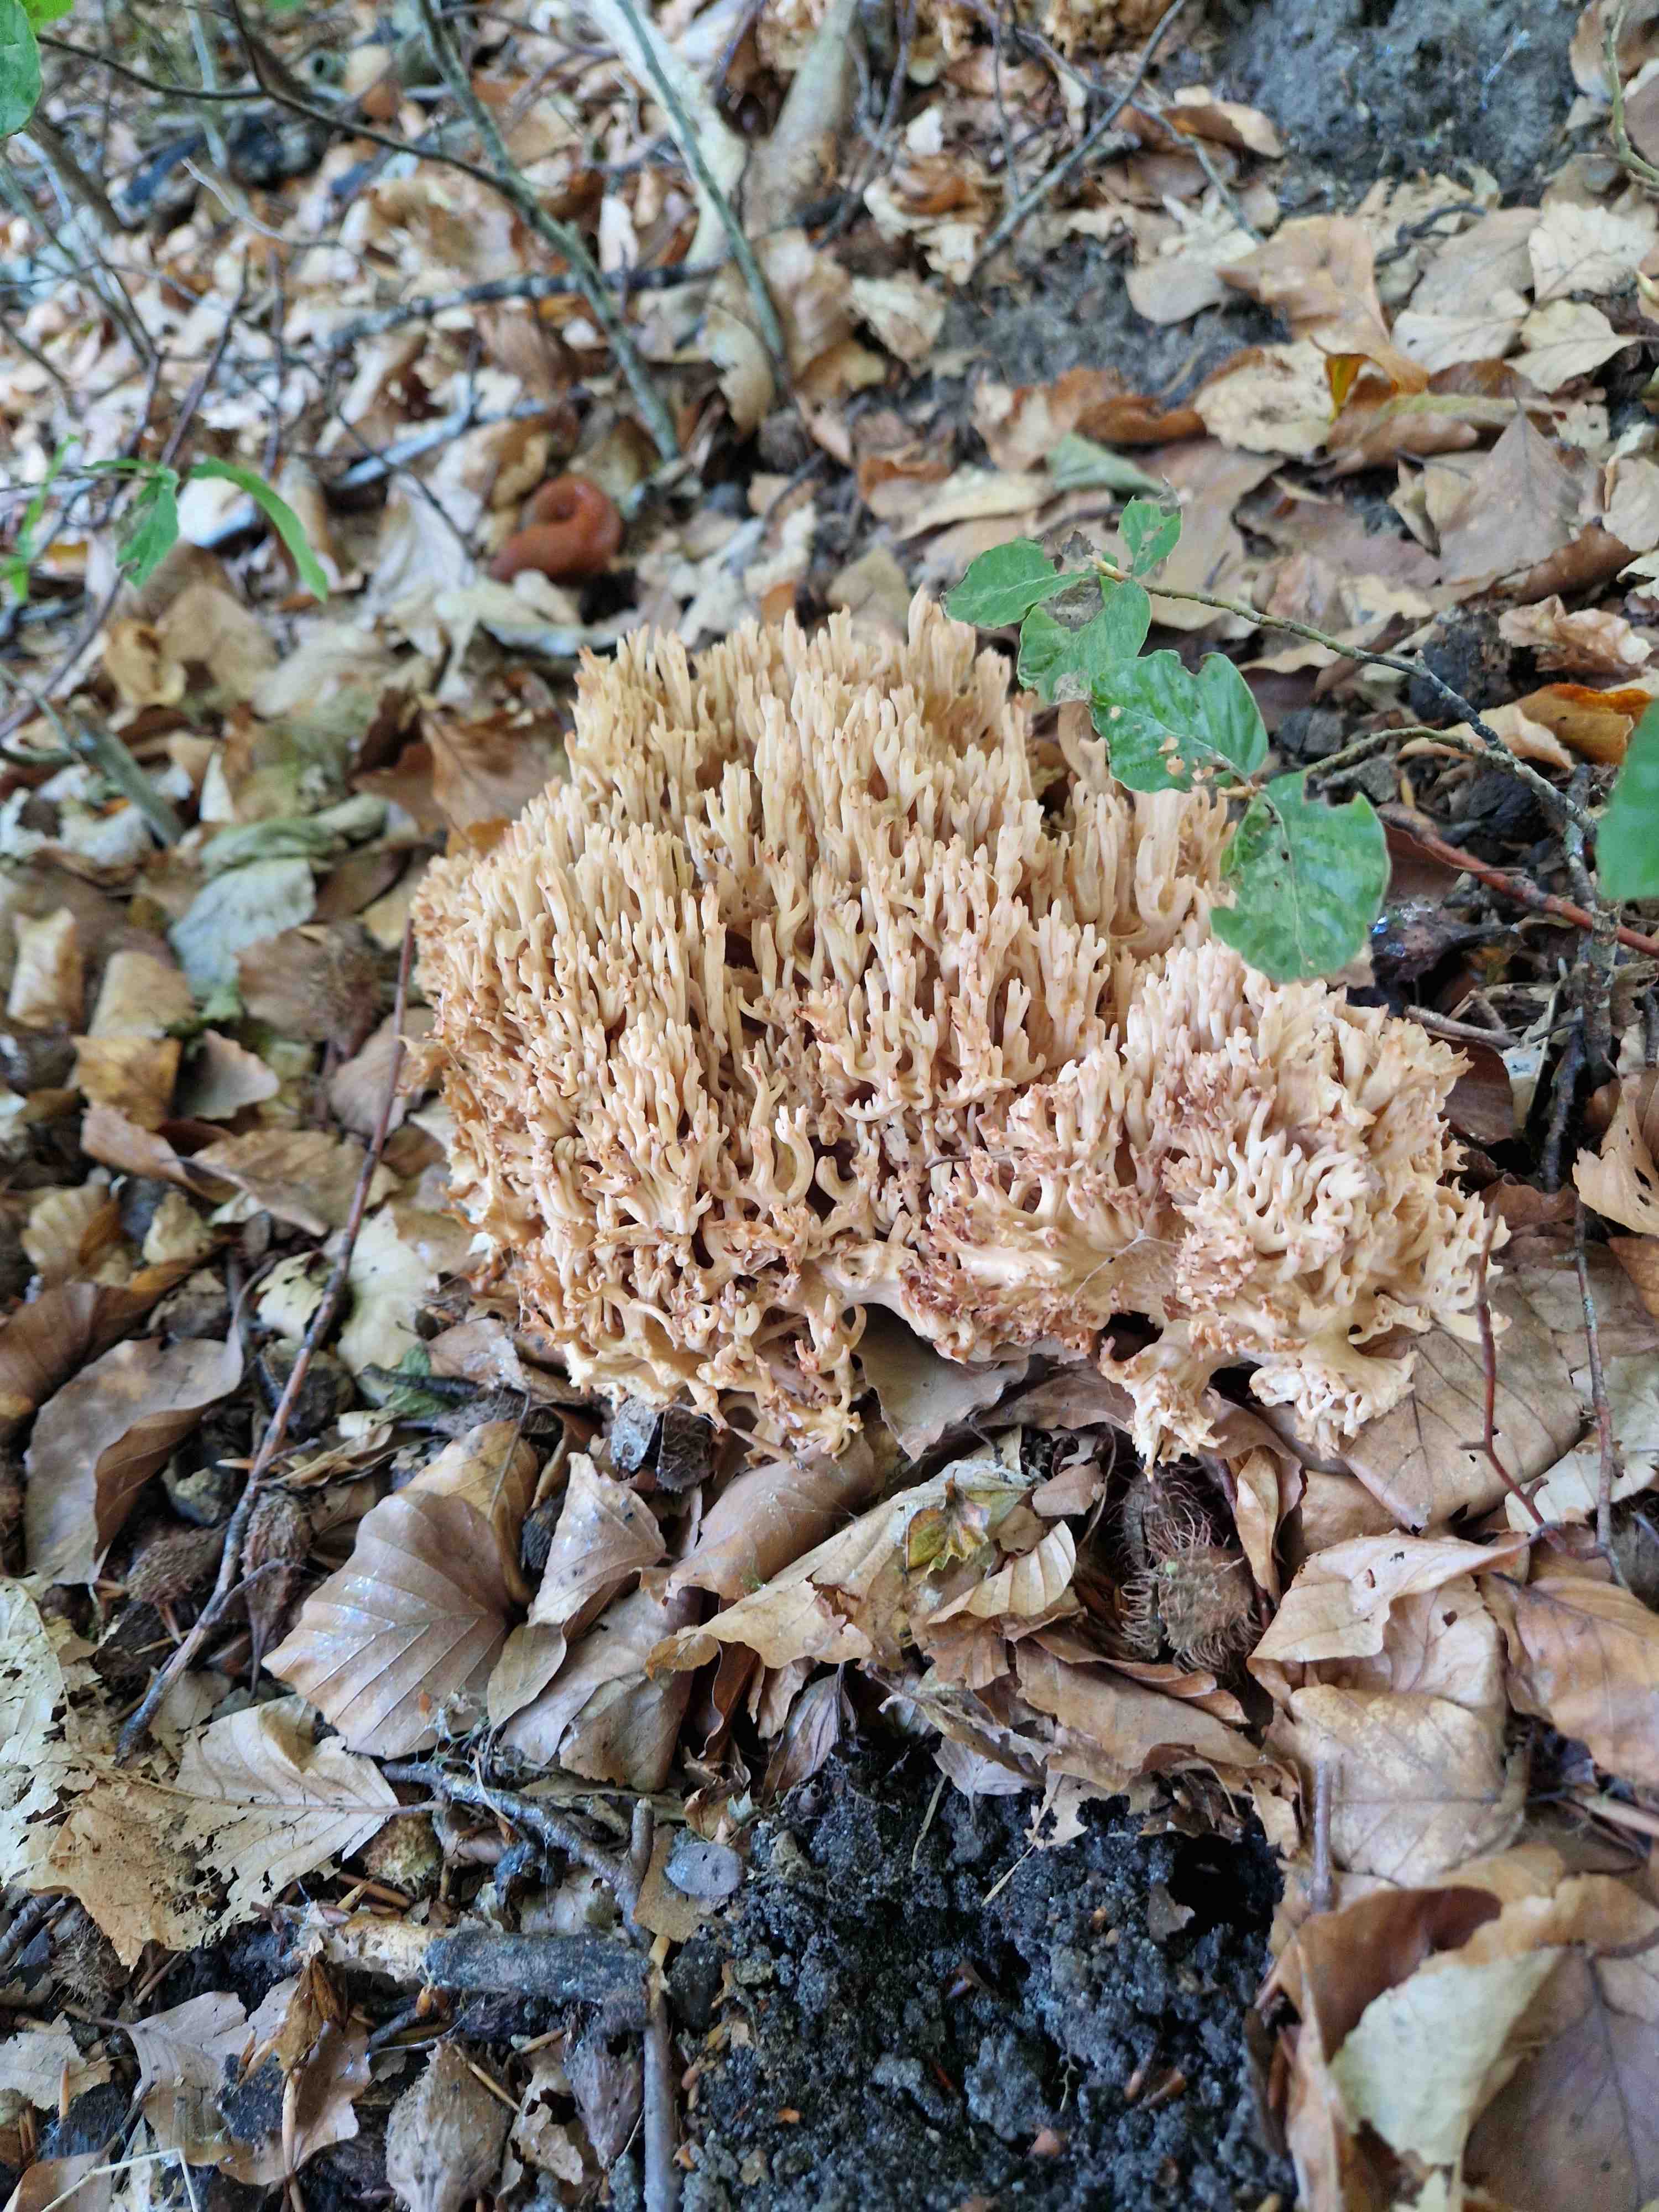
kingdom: Fungi
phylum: Basidiomycota
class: Agaricomycetes
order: Gomphales
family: Gomphaceae
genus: Ramaria
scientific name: Ramaria botrytis
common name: drue-koralsvamp
